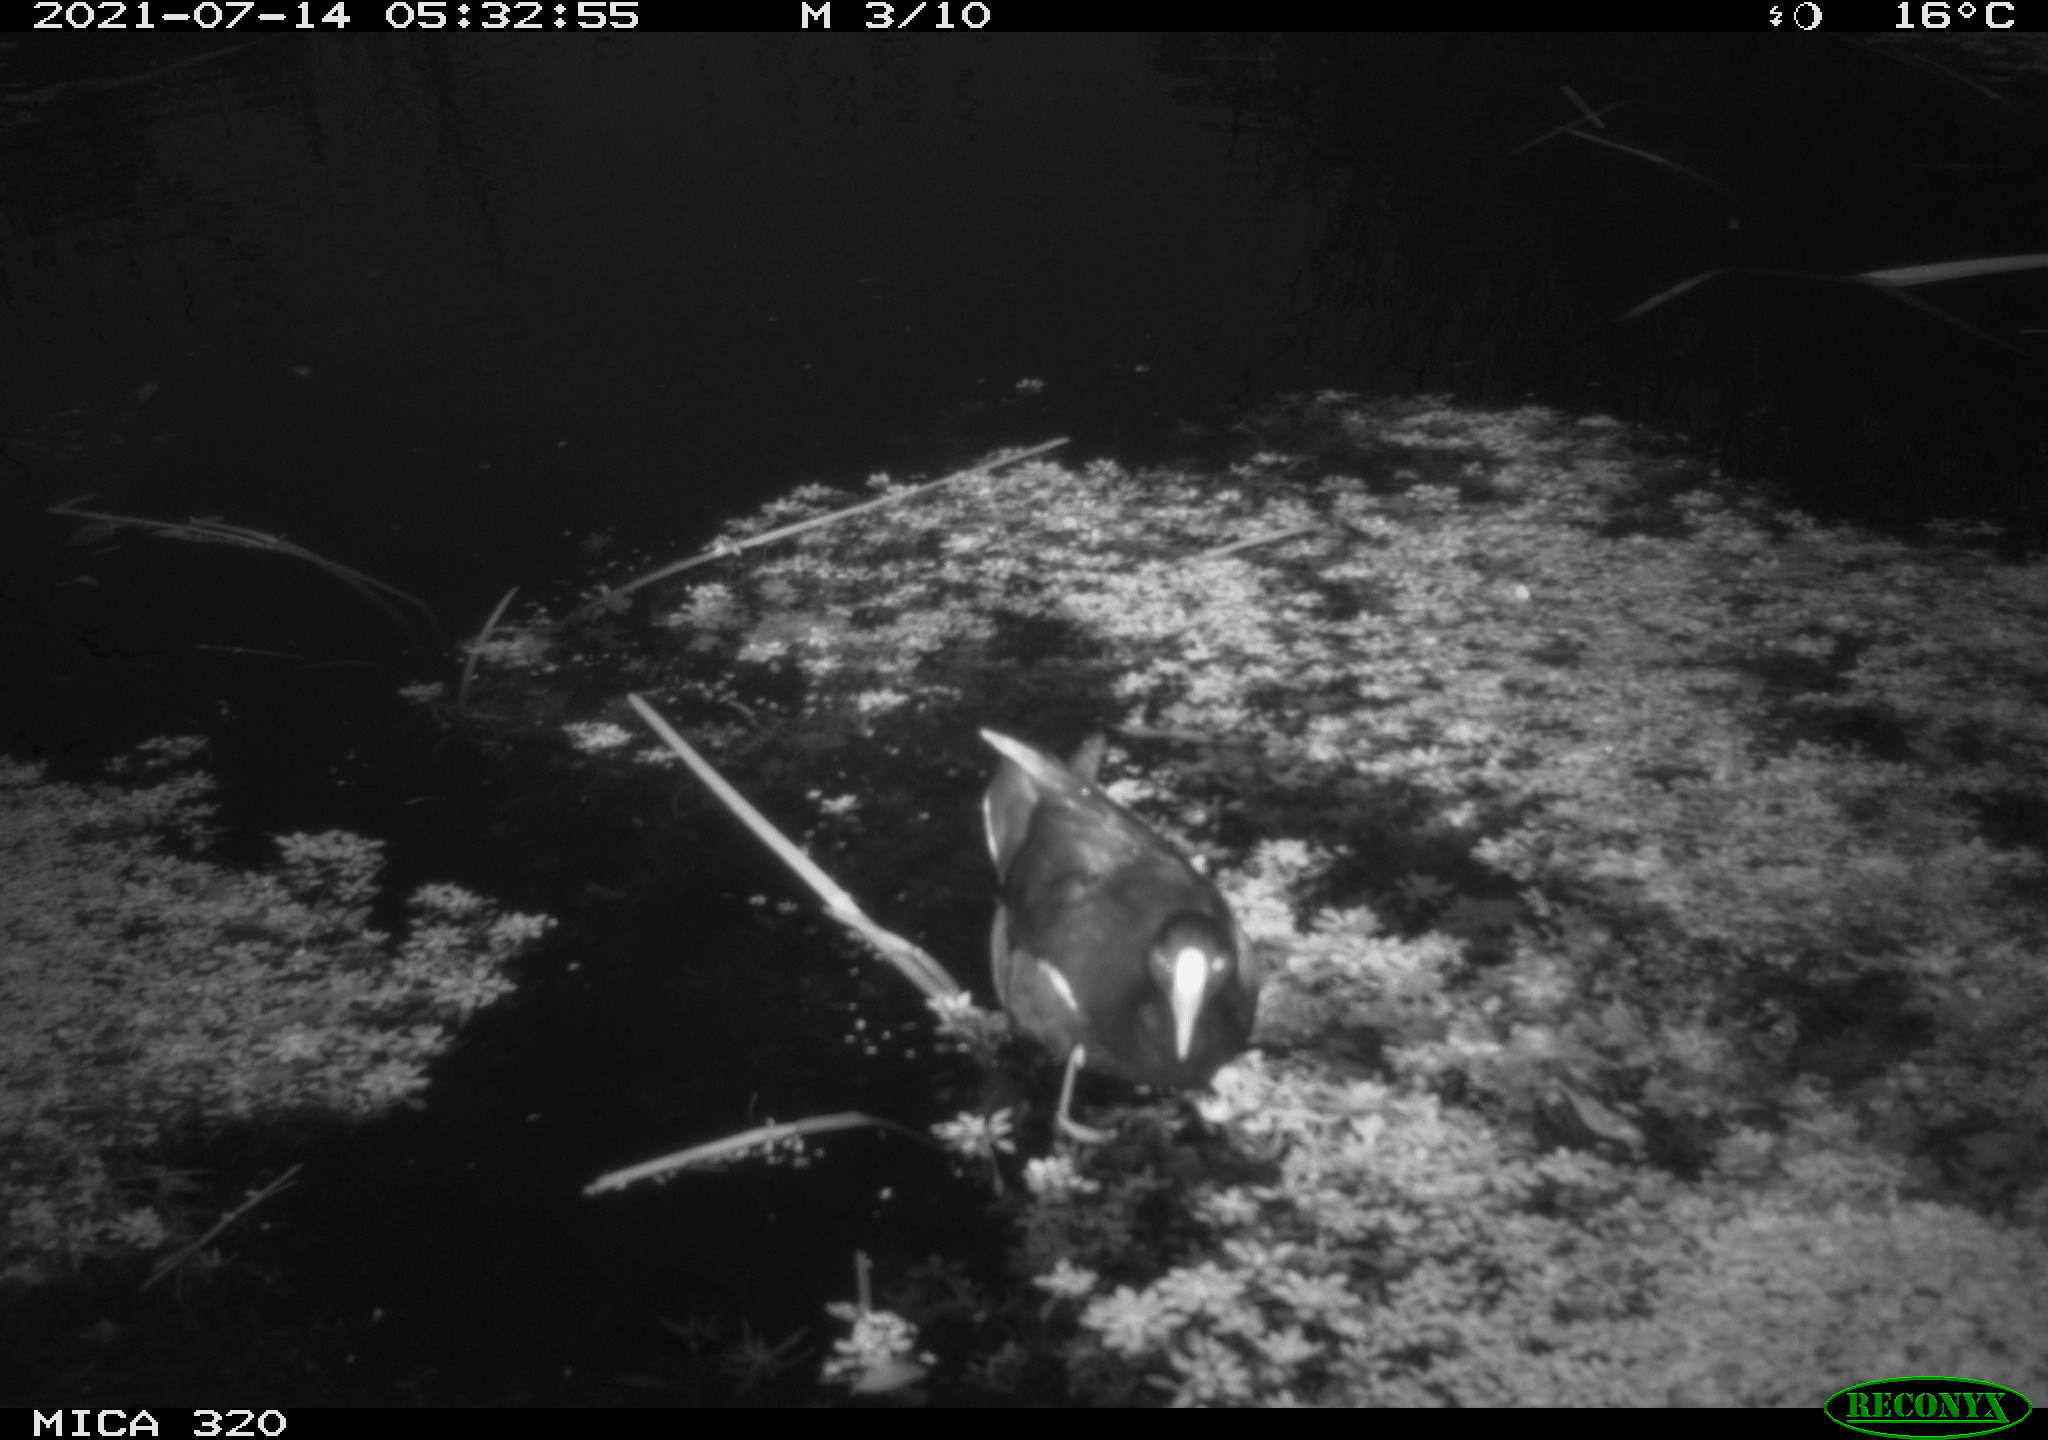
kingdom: Animalia
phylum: Chordata
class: Aves
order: Gruiformes
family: Rallidae
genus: Gallinula
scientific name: Gallinula chloropus
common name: Common moorhen
